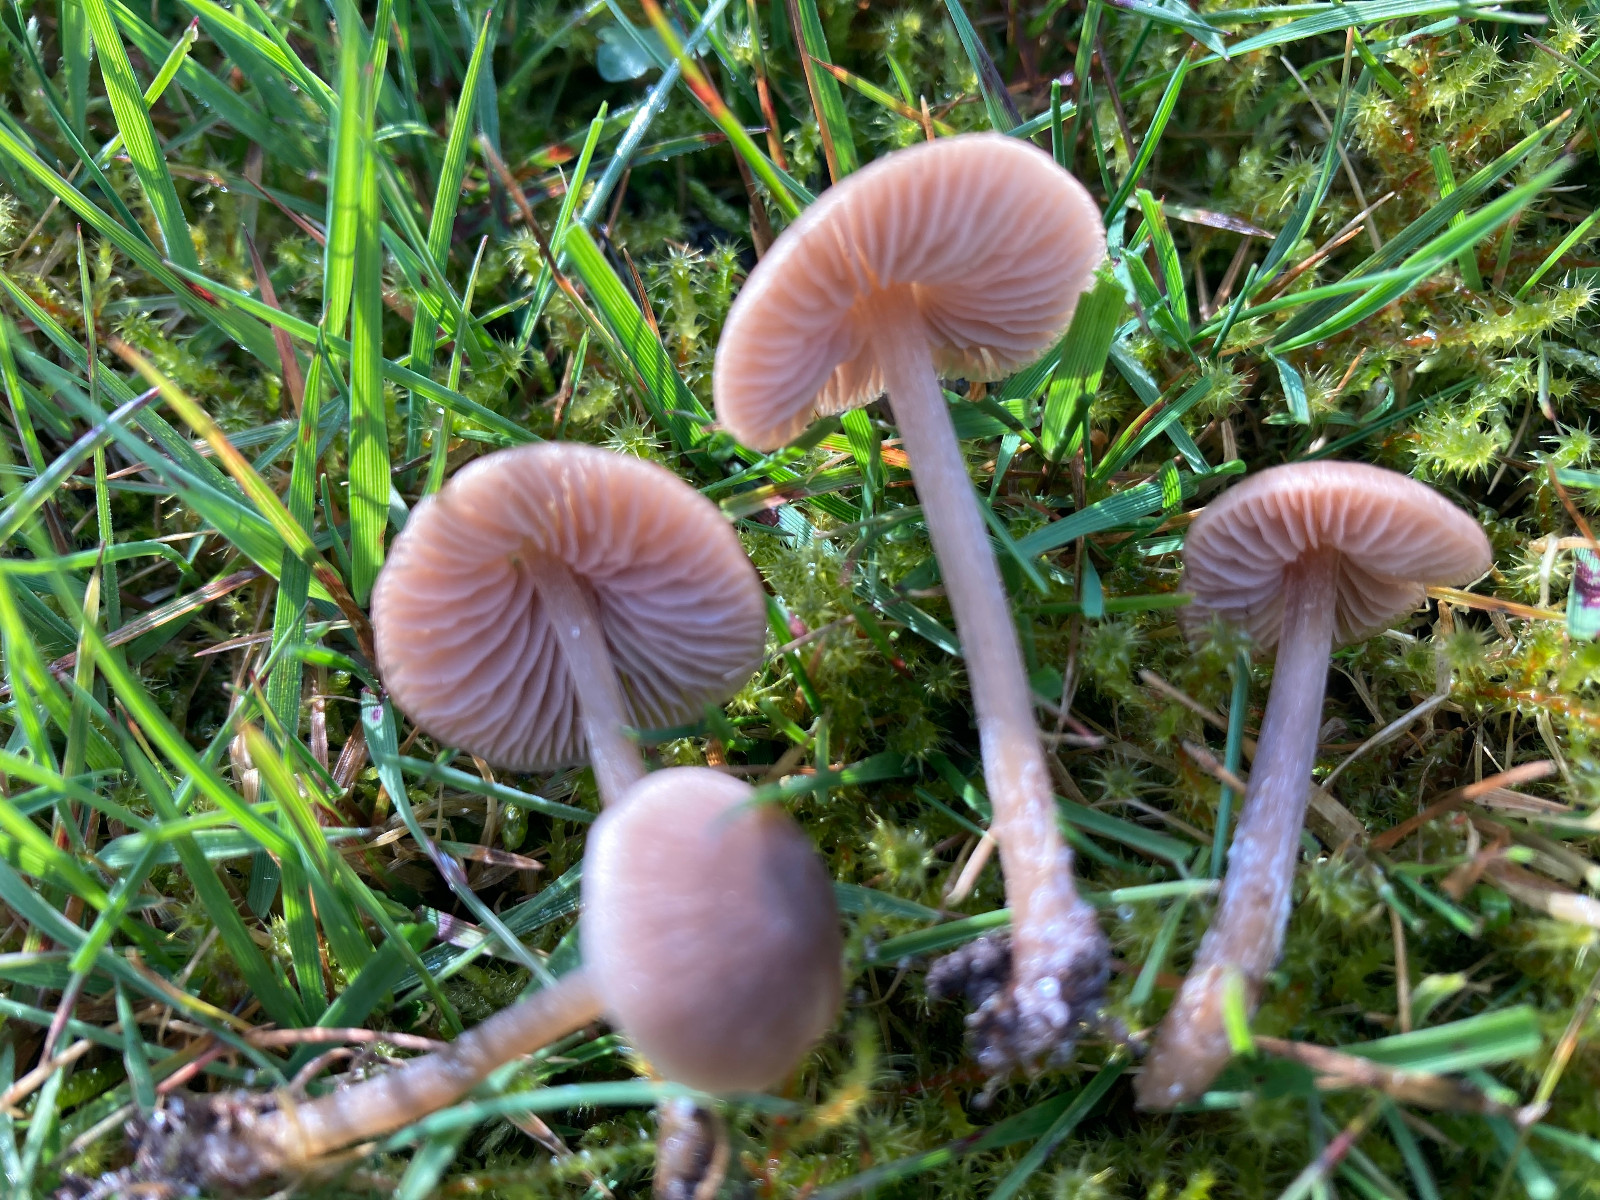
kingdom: Fungi
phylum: Basidiomycota
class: Agaricomycetes
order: Agaricales
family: Entolomataceae
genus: Entoloma
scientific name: Entoloma
